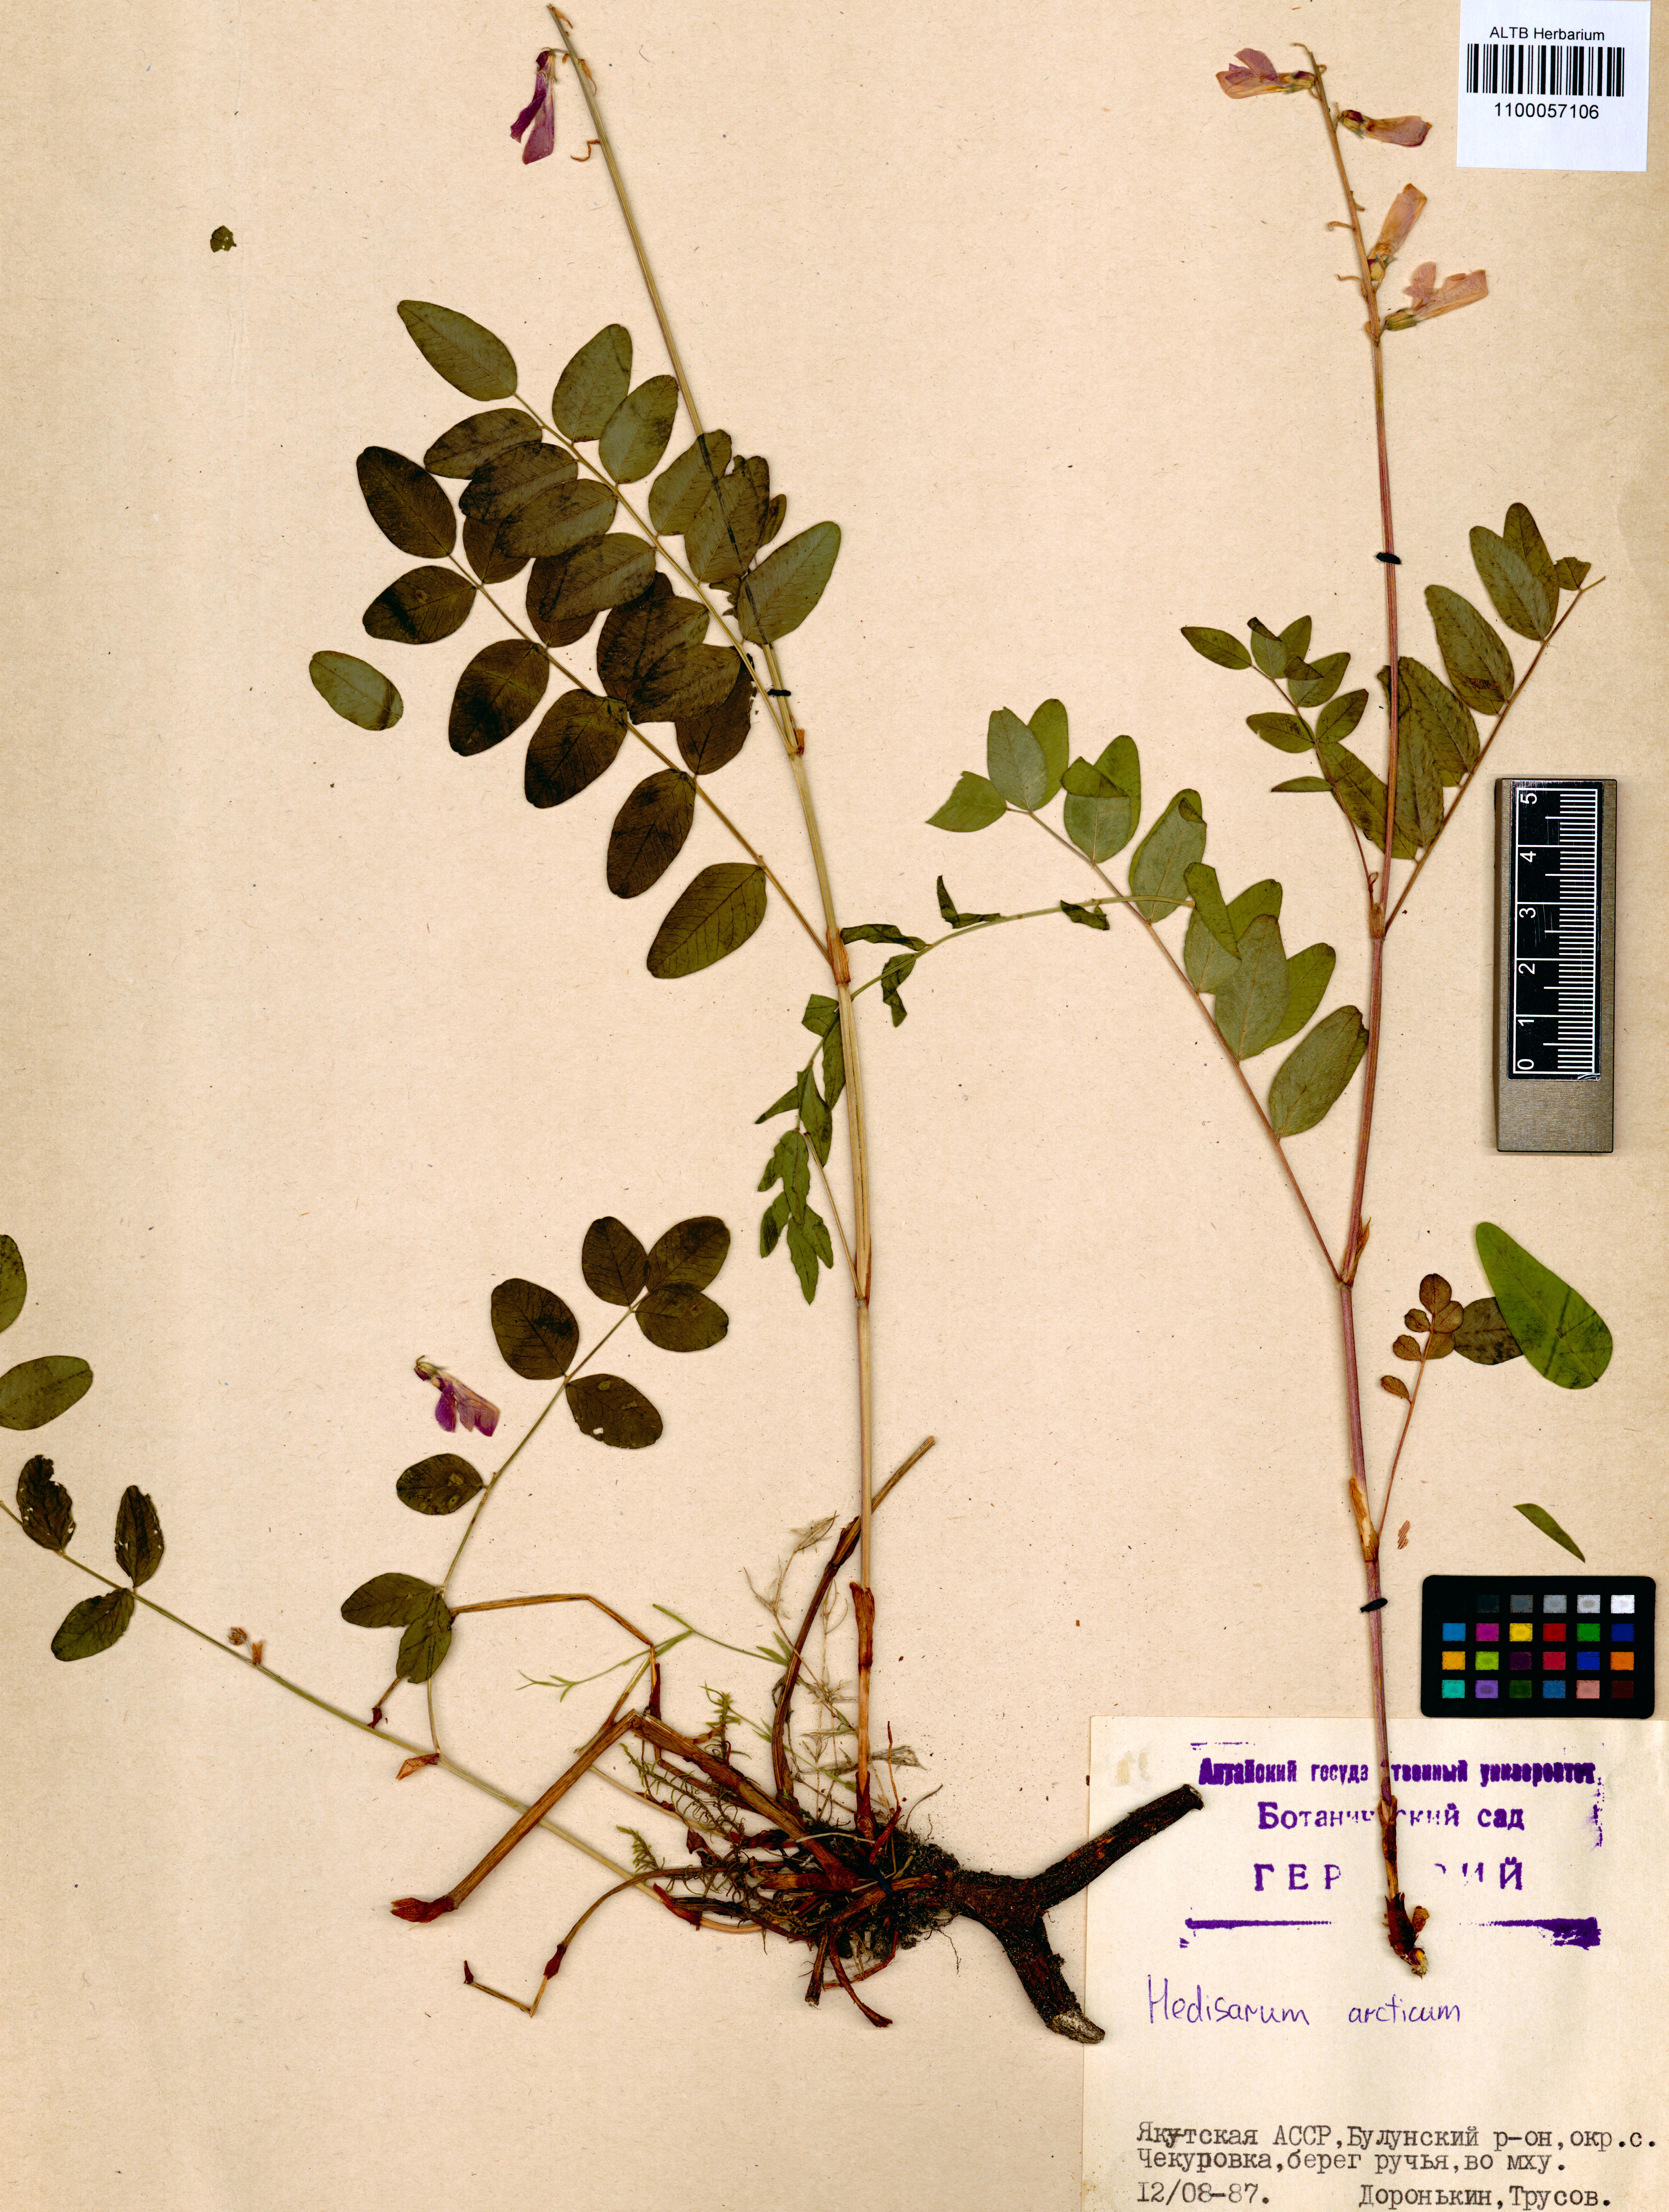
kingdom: Plantae
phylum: Tracheophyta
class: Magnoliopsida
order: Fabales
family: Fabaceae
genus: Hedysarum
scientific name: Hedysarum hedysaroides
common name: Alpine french-honeysuckle
